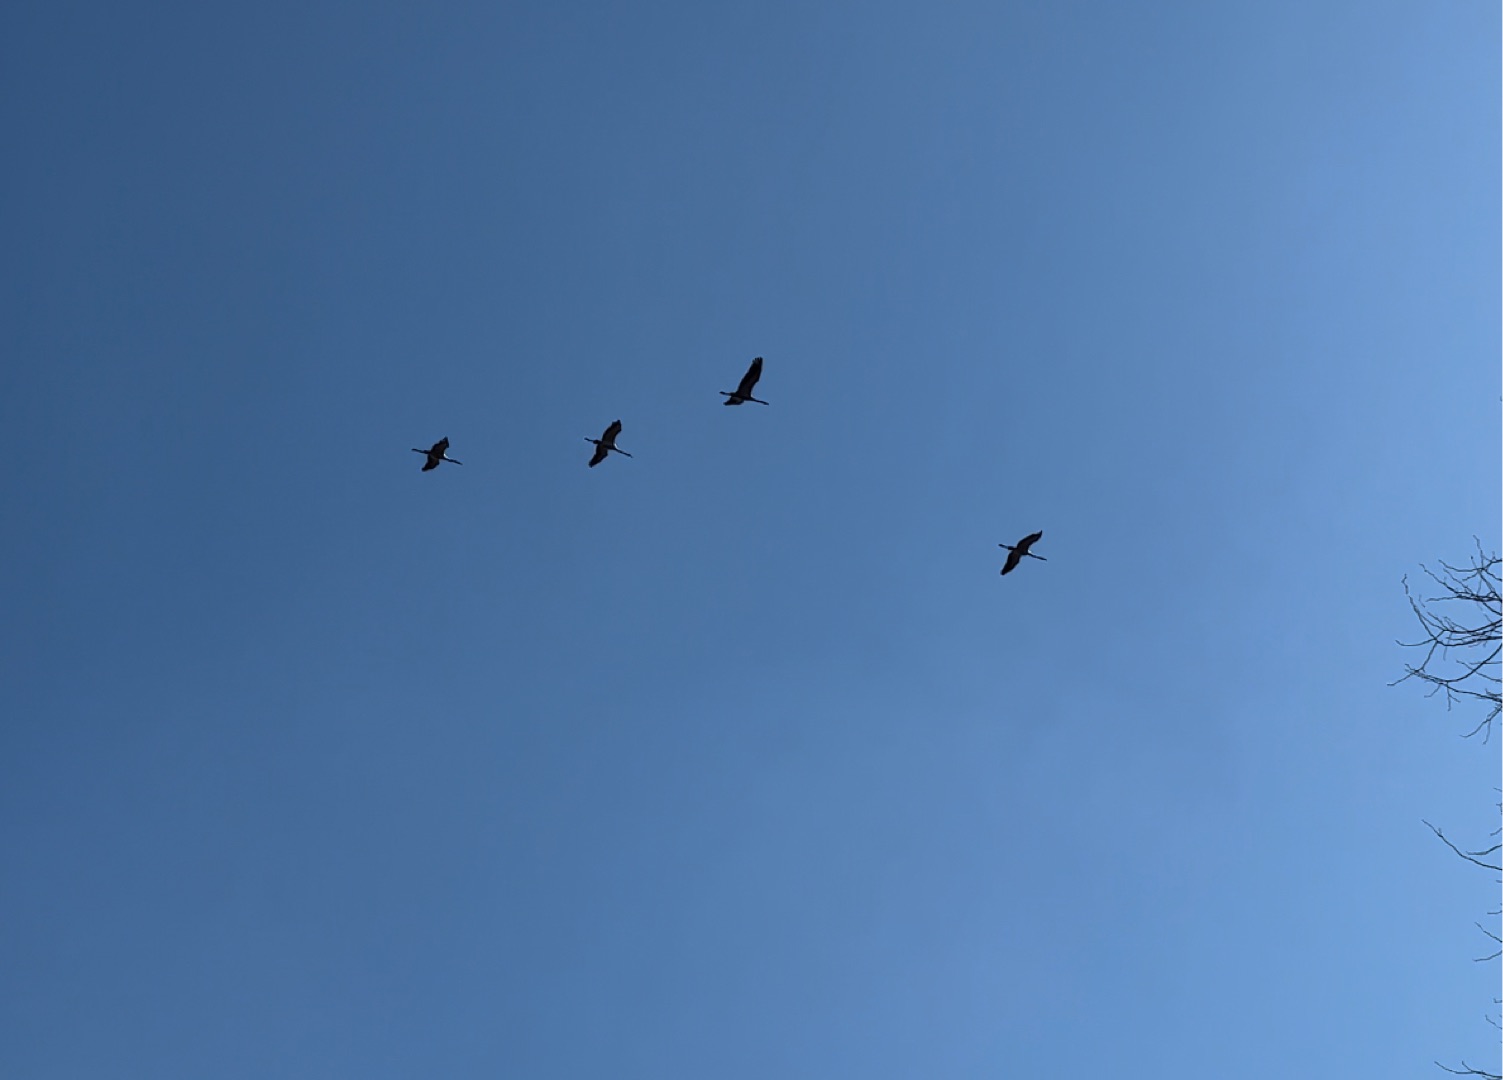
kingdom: Animalia
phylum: Chordata
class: Aves
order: Gruiformes
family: Gruidae
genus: Grus
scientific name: Grus grus
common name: Trane
